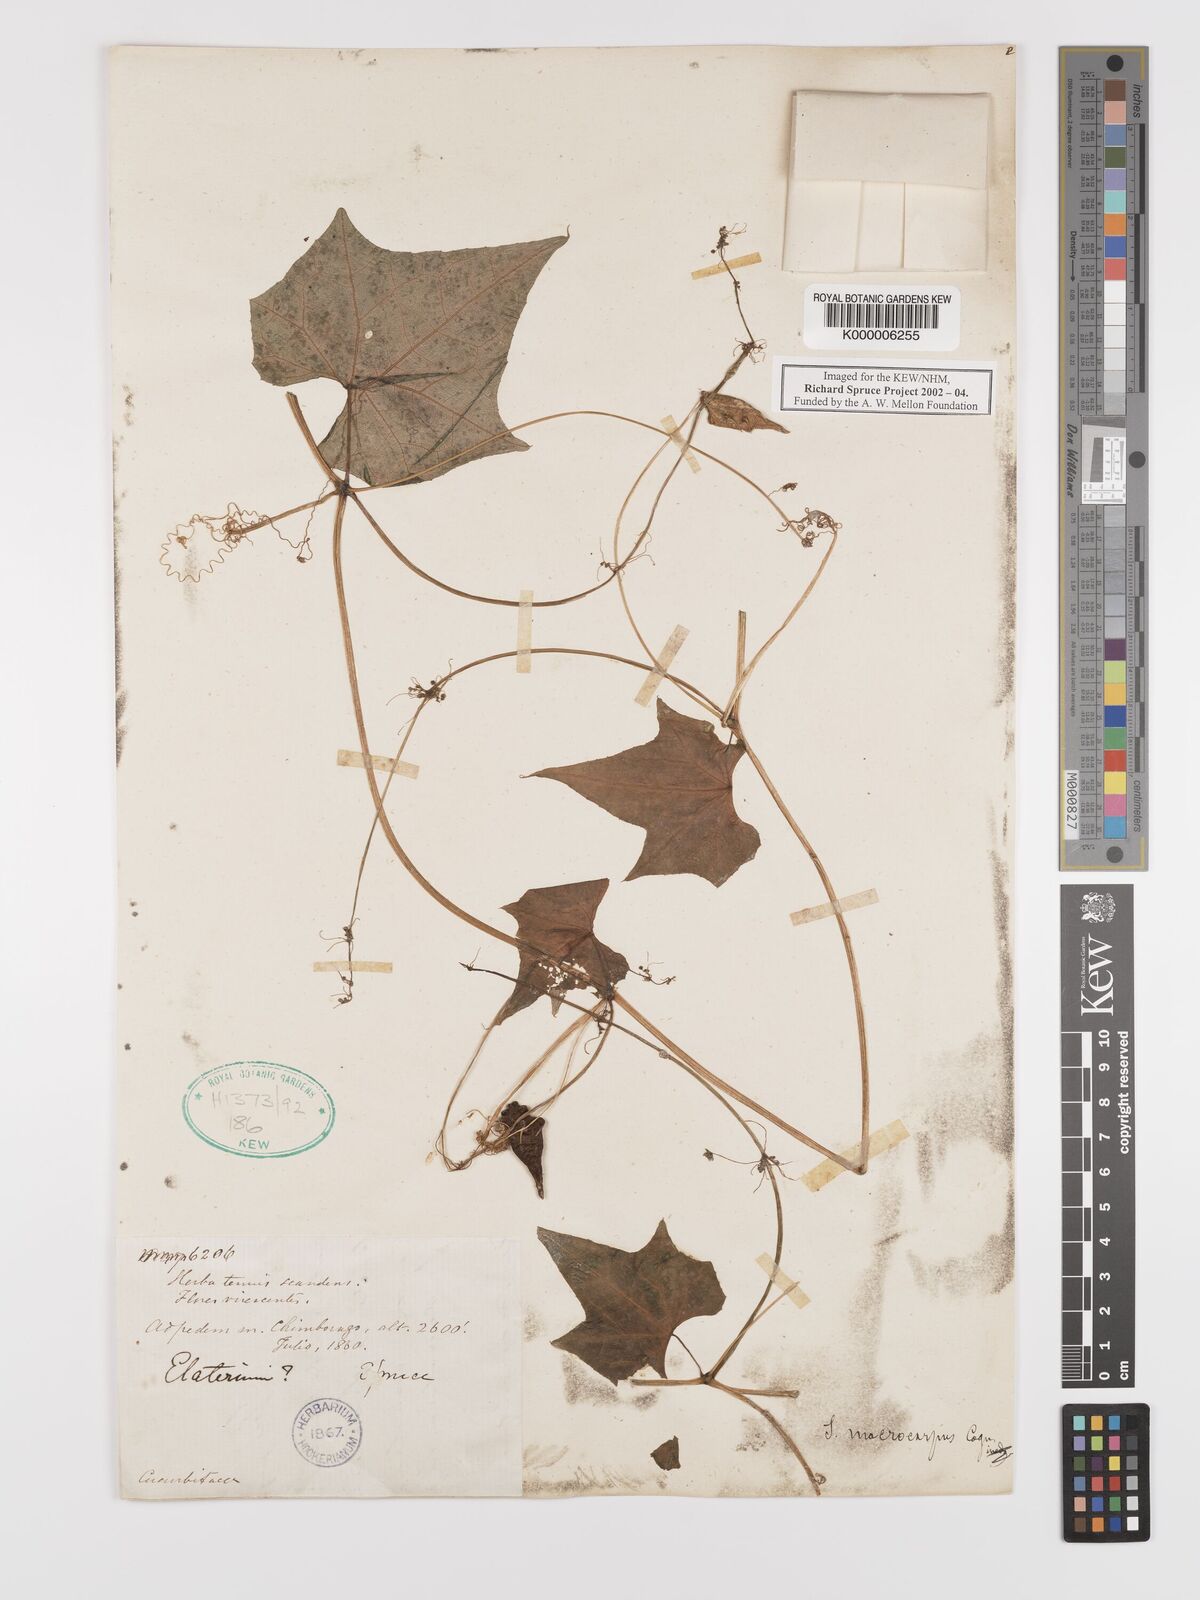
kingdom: Plantae
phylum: Tracheophyta
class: Magnoliopsida
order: Cucurbitales
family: Cucurbitaceae
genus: Sicyos
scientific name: Sicyos macrocarpus
